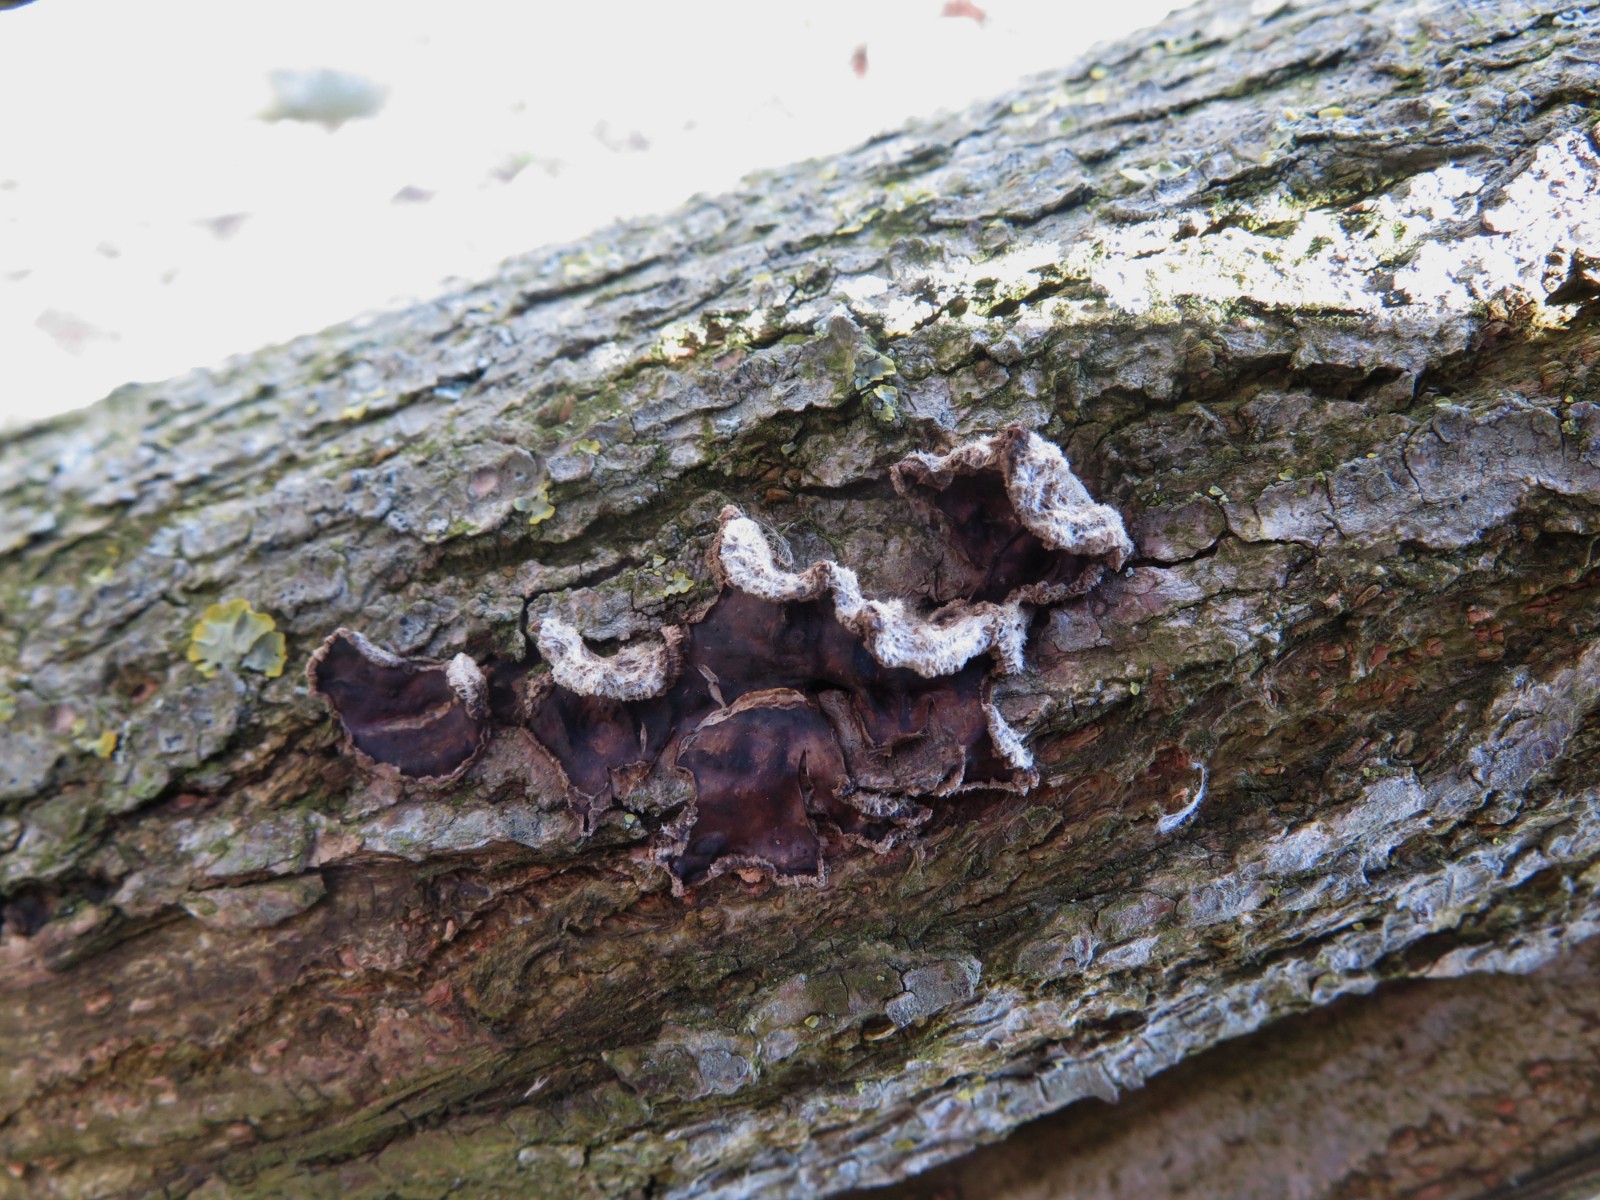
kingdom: Fungi
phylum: Basidiomycota
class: Agaricomycetes
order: Agaricales
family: Cyphellaceae
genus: Chondrostereum
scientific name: Chondrostereum purpureum
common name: purpurlædersvamp
